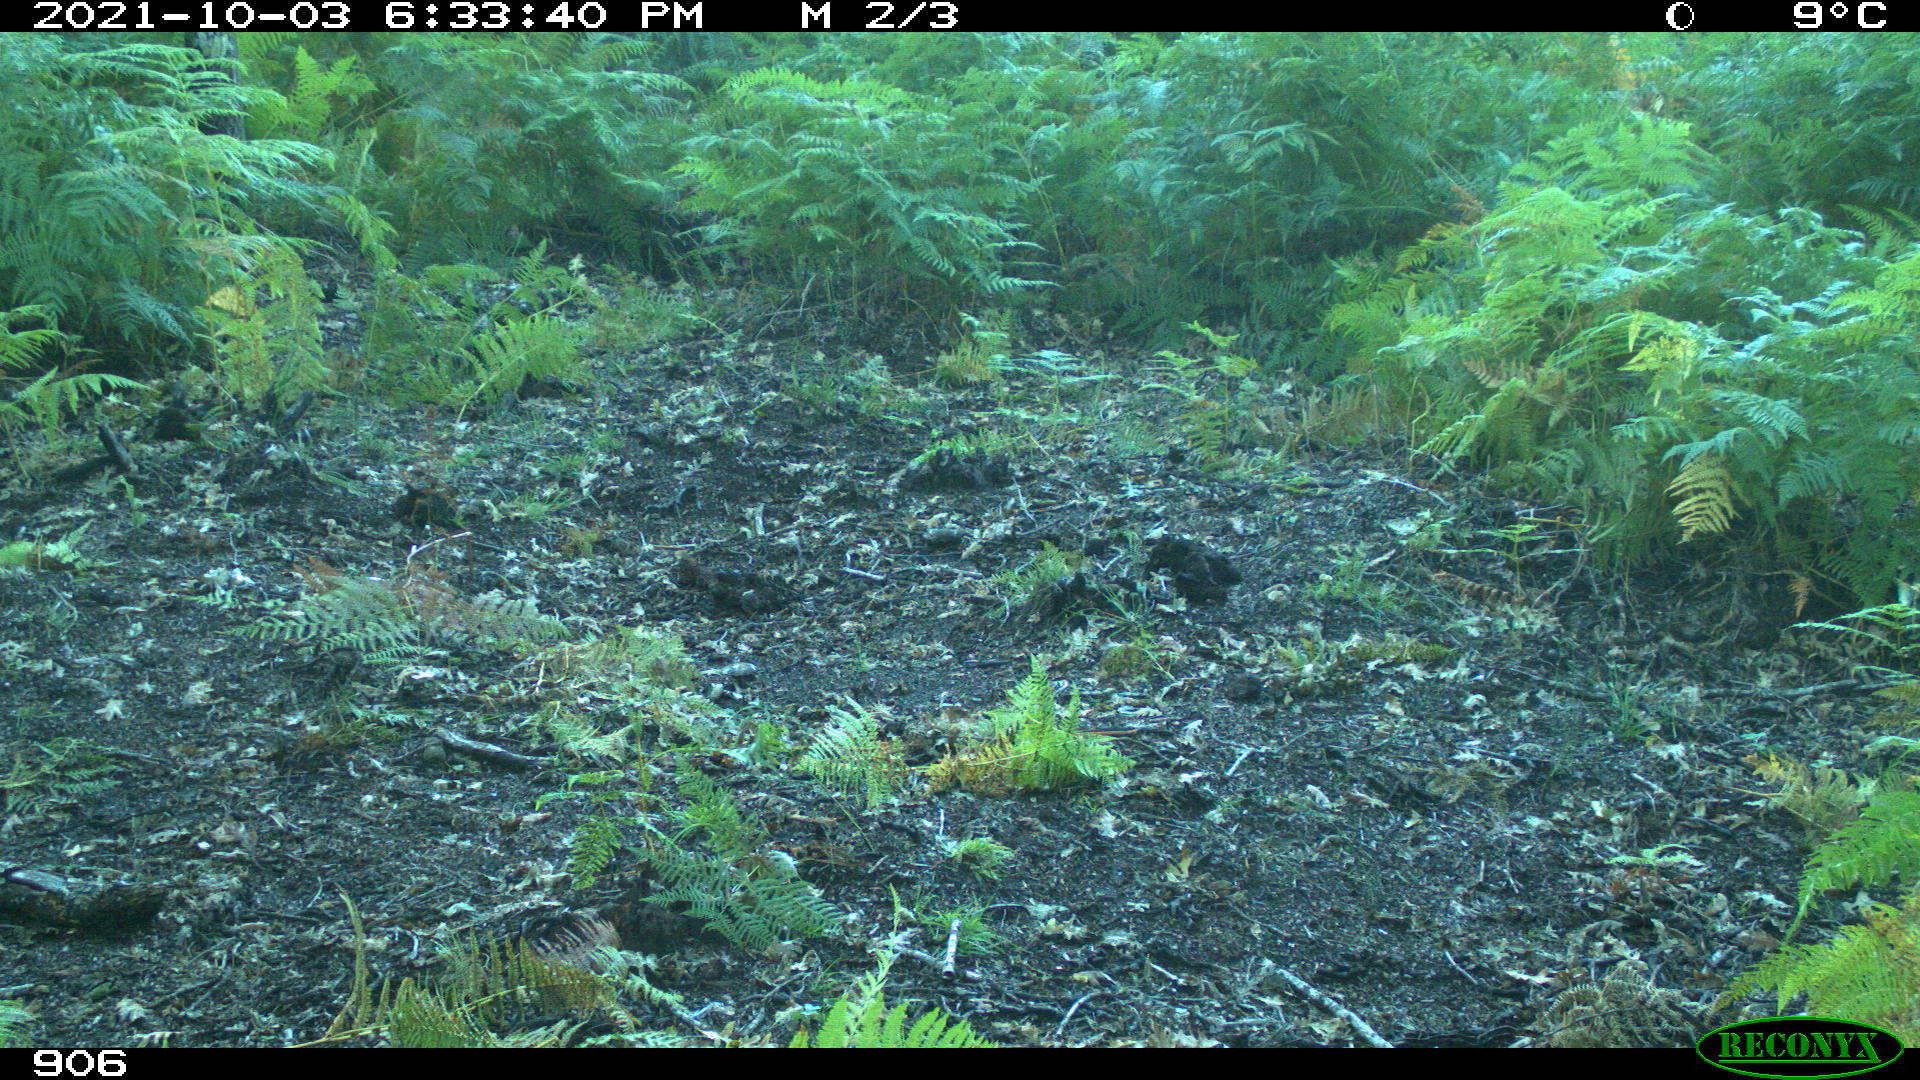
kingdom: Animalia
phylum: Chordata
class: Mammalia
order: Artiodactyla
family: Cervidae
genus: Capreolus
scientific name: Capreolus capreolus
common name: Western roe deer
